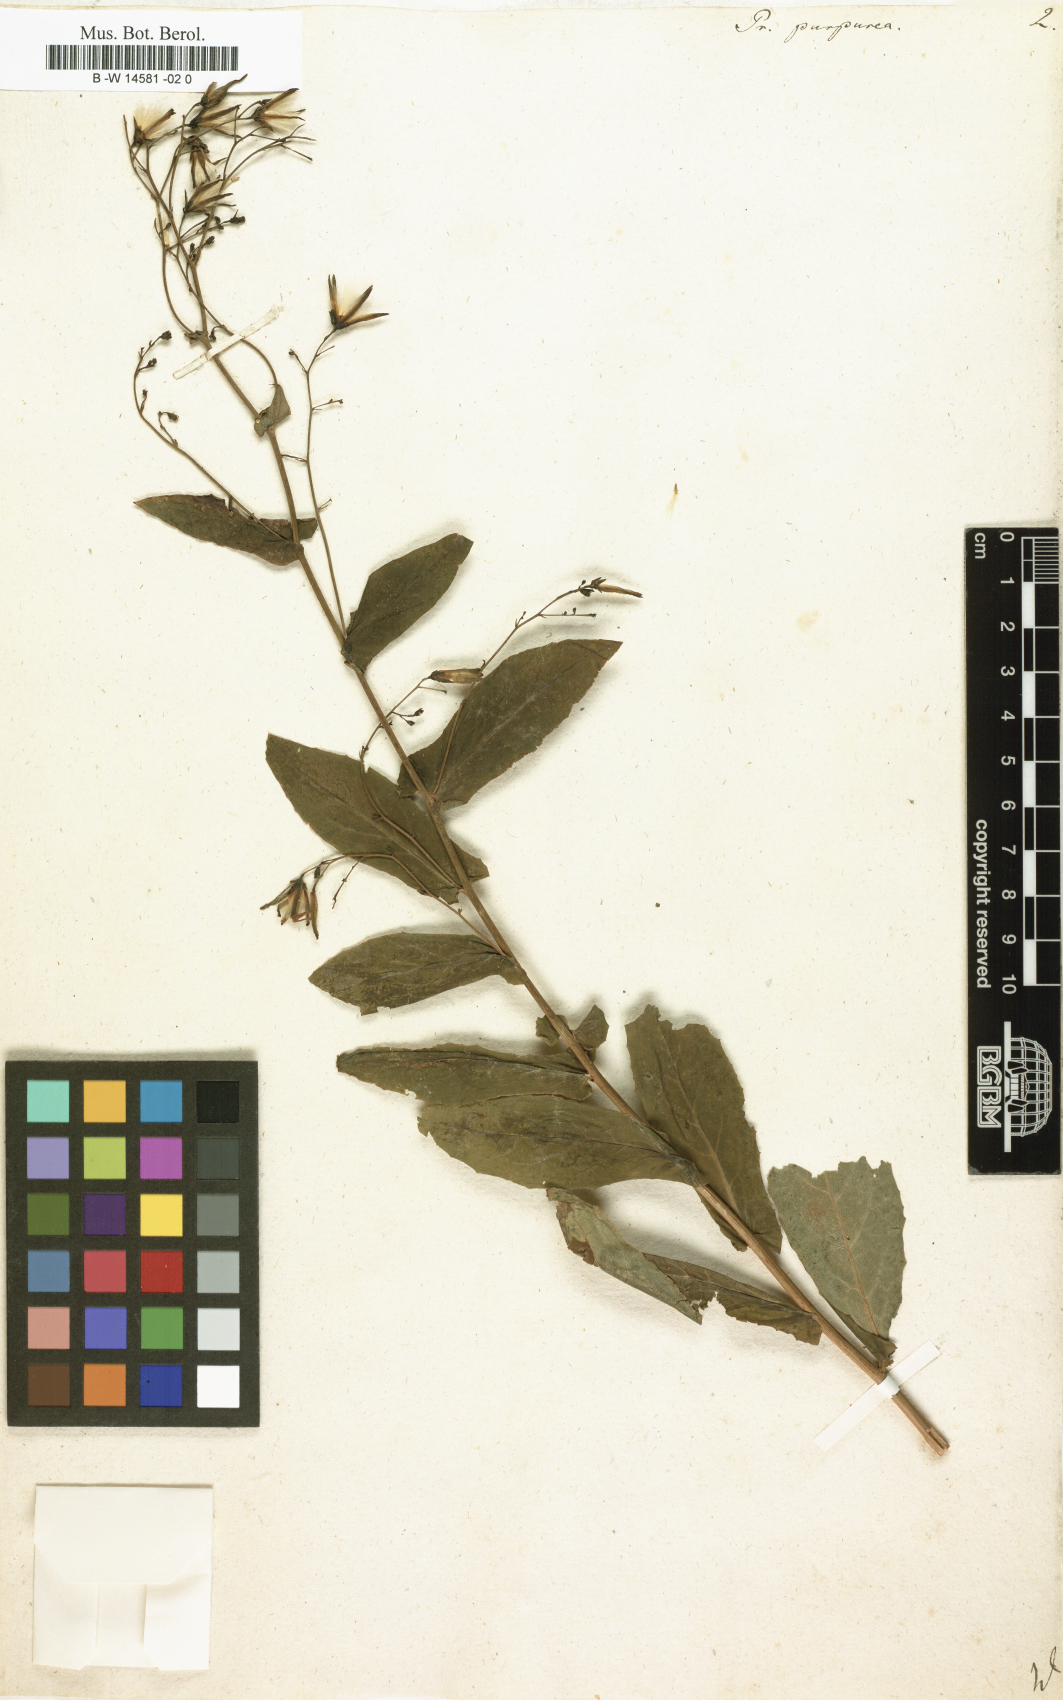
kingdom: Plantae
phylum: Tracheophyta
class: Magnoliopsida
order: Asterales
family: Asteraceae
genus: Prenanthes
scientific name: Prenanthes purpurea
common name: Purple lettuce
